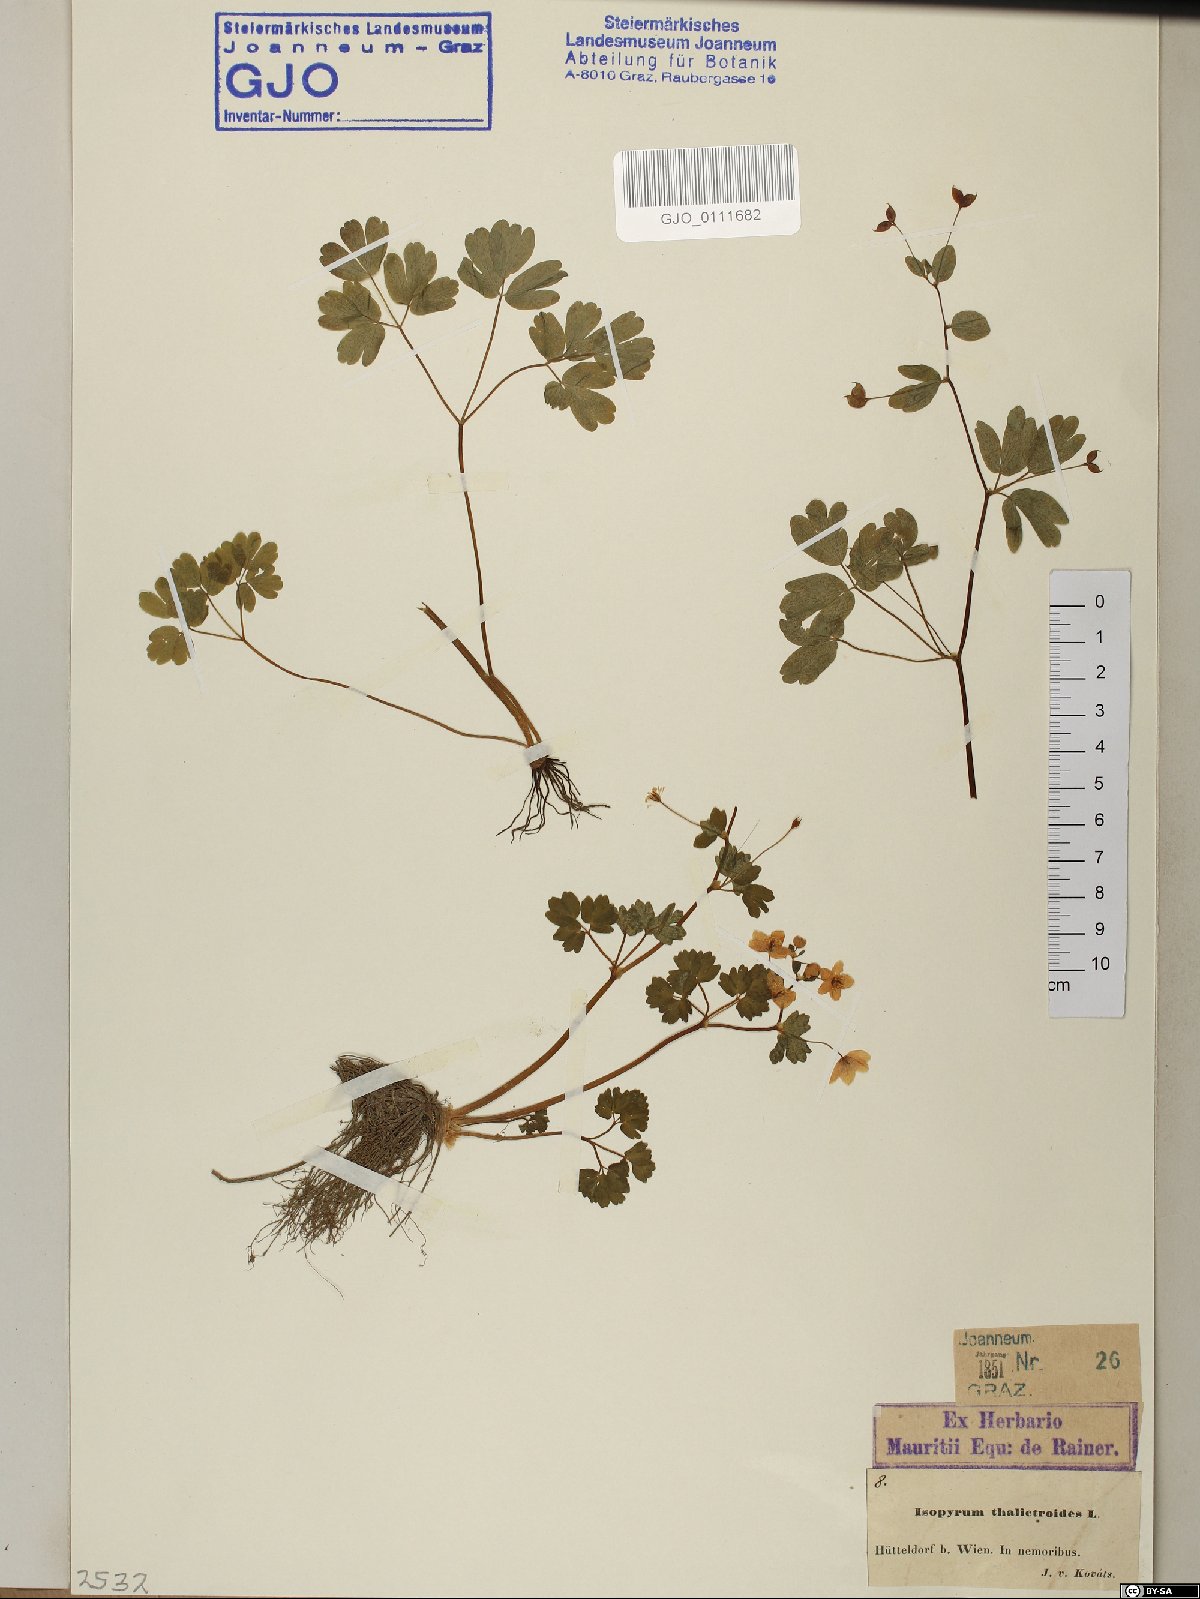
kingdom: Plantae
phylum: Tracheophyta
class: Magnoliopsida
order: Ranunculales
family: Ranunculaceae
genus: Isopyrum
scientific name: Isopyrum thalictroides
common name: Isopyrum
